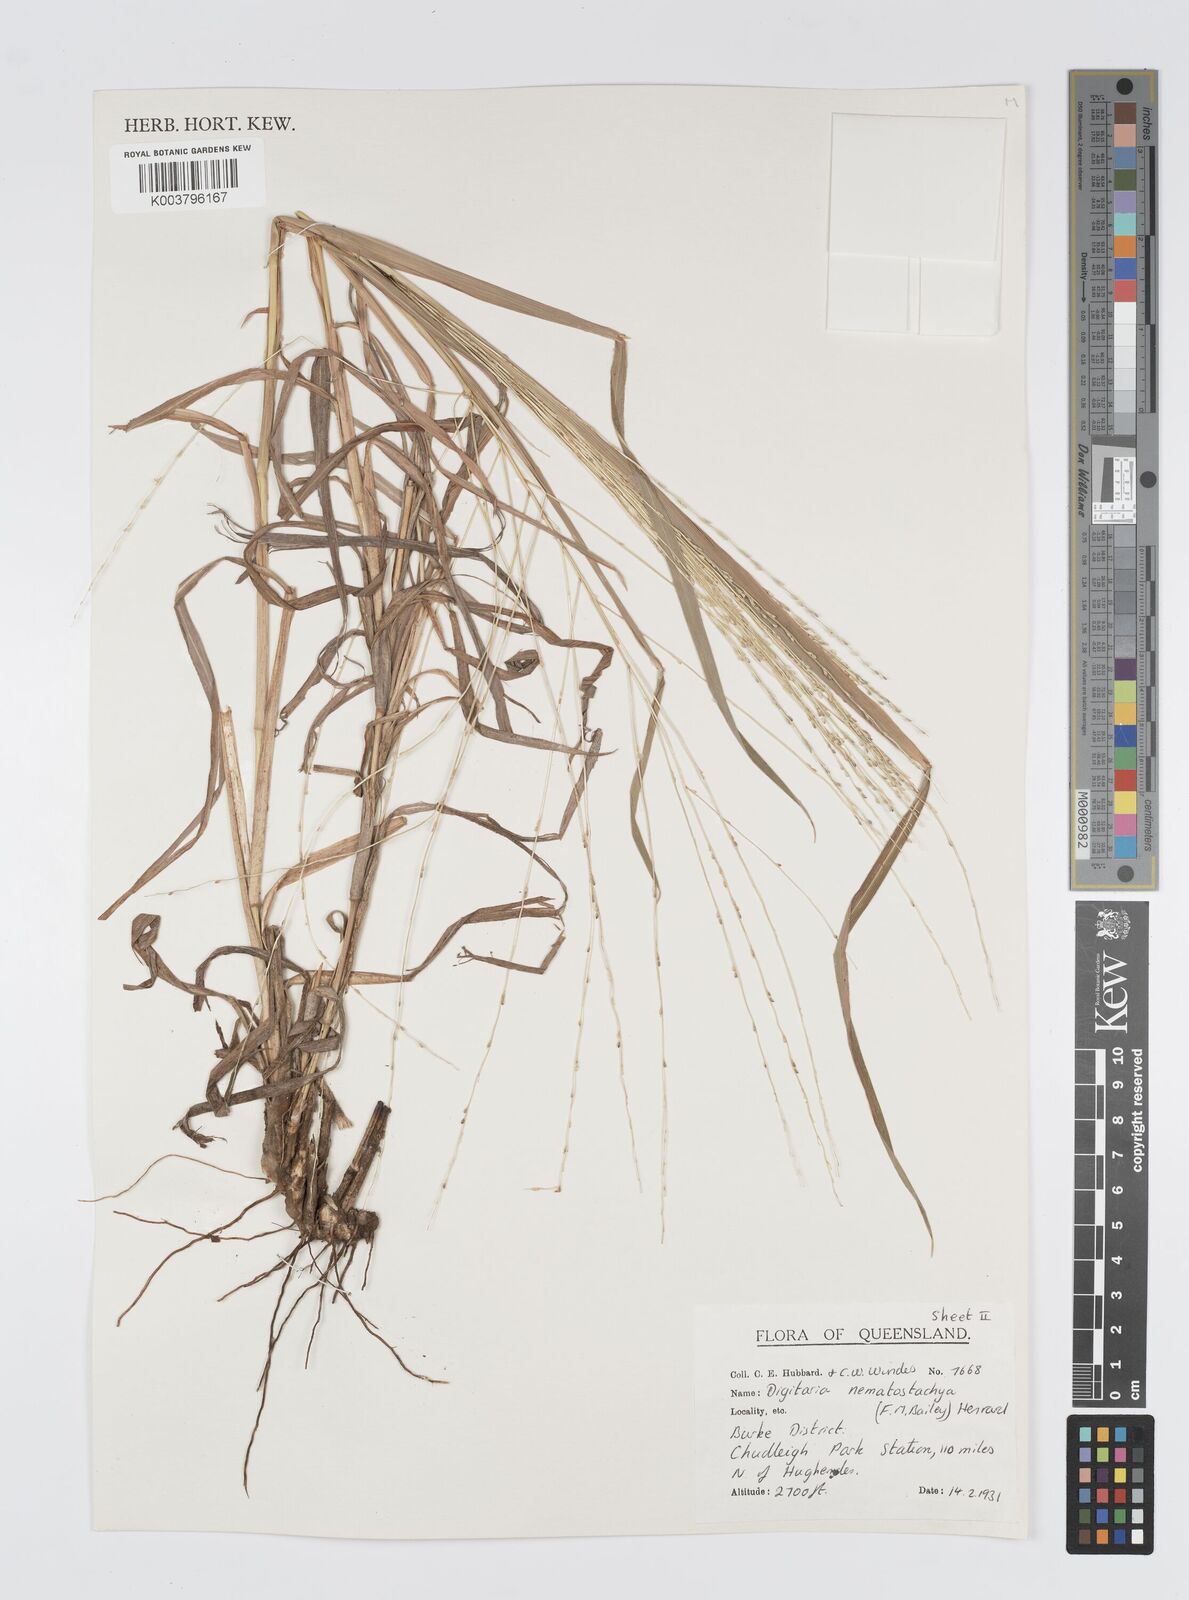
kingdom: Plantae
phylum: Tracheophyta
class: Liliopsida
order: Poales
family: Poaceae
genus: Digitaria
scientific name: Digitaria nematostachya
